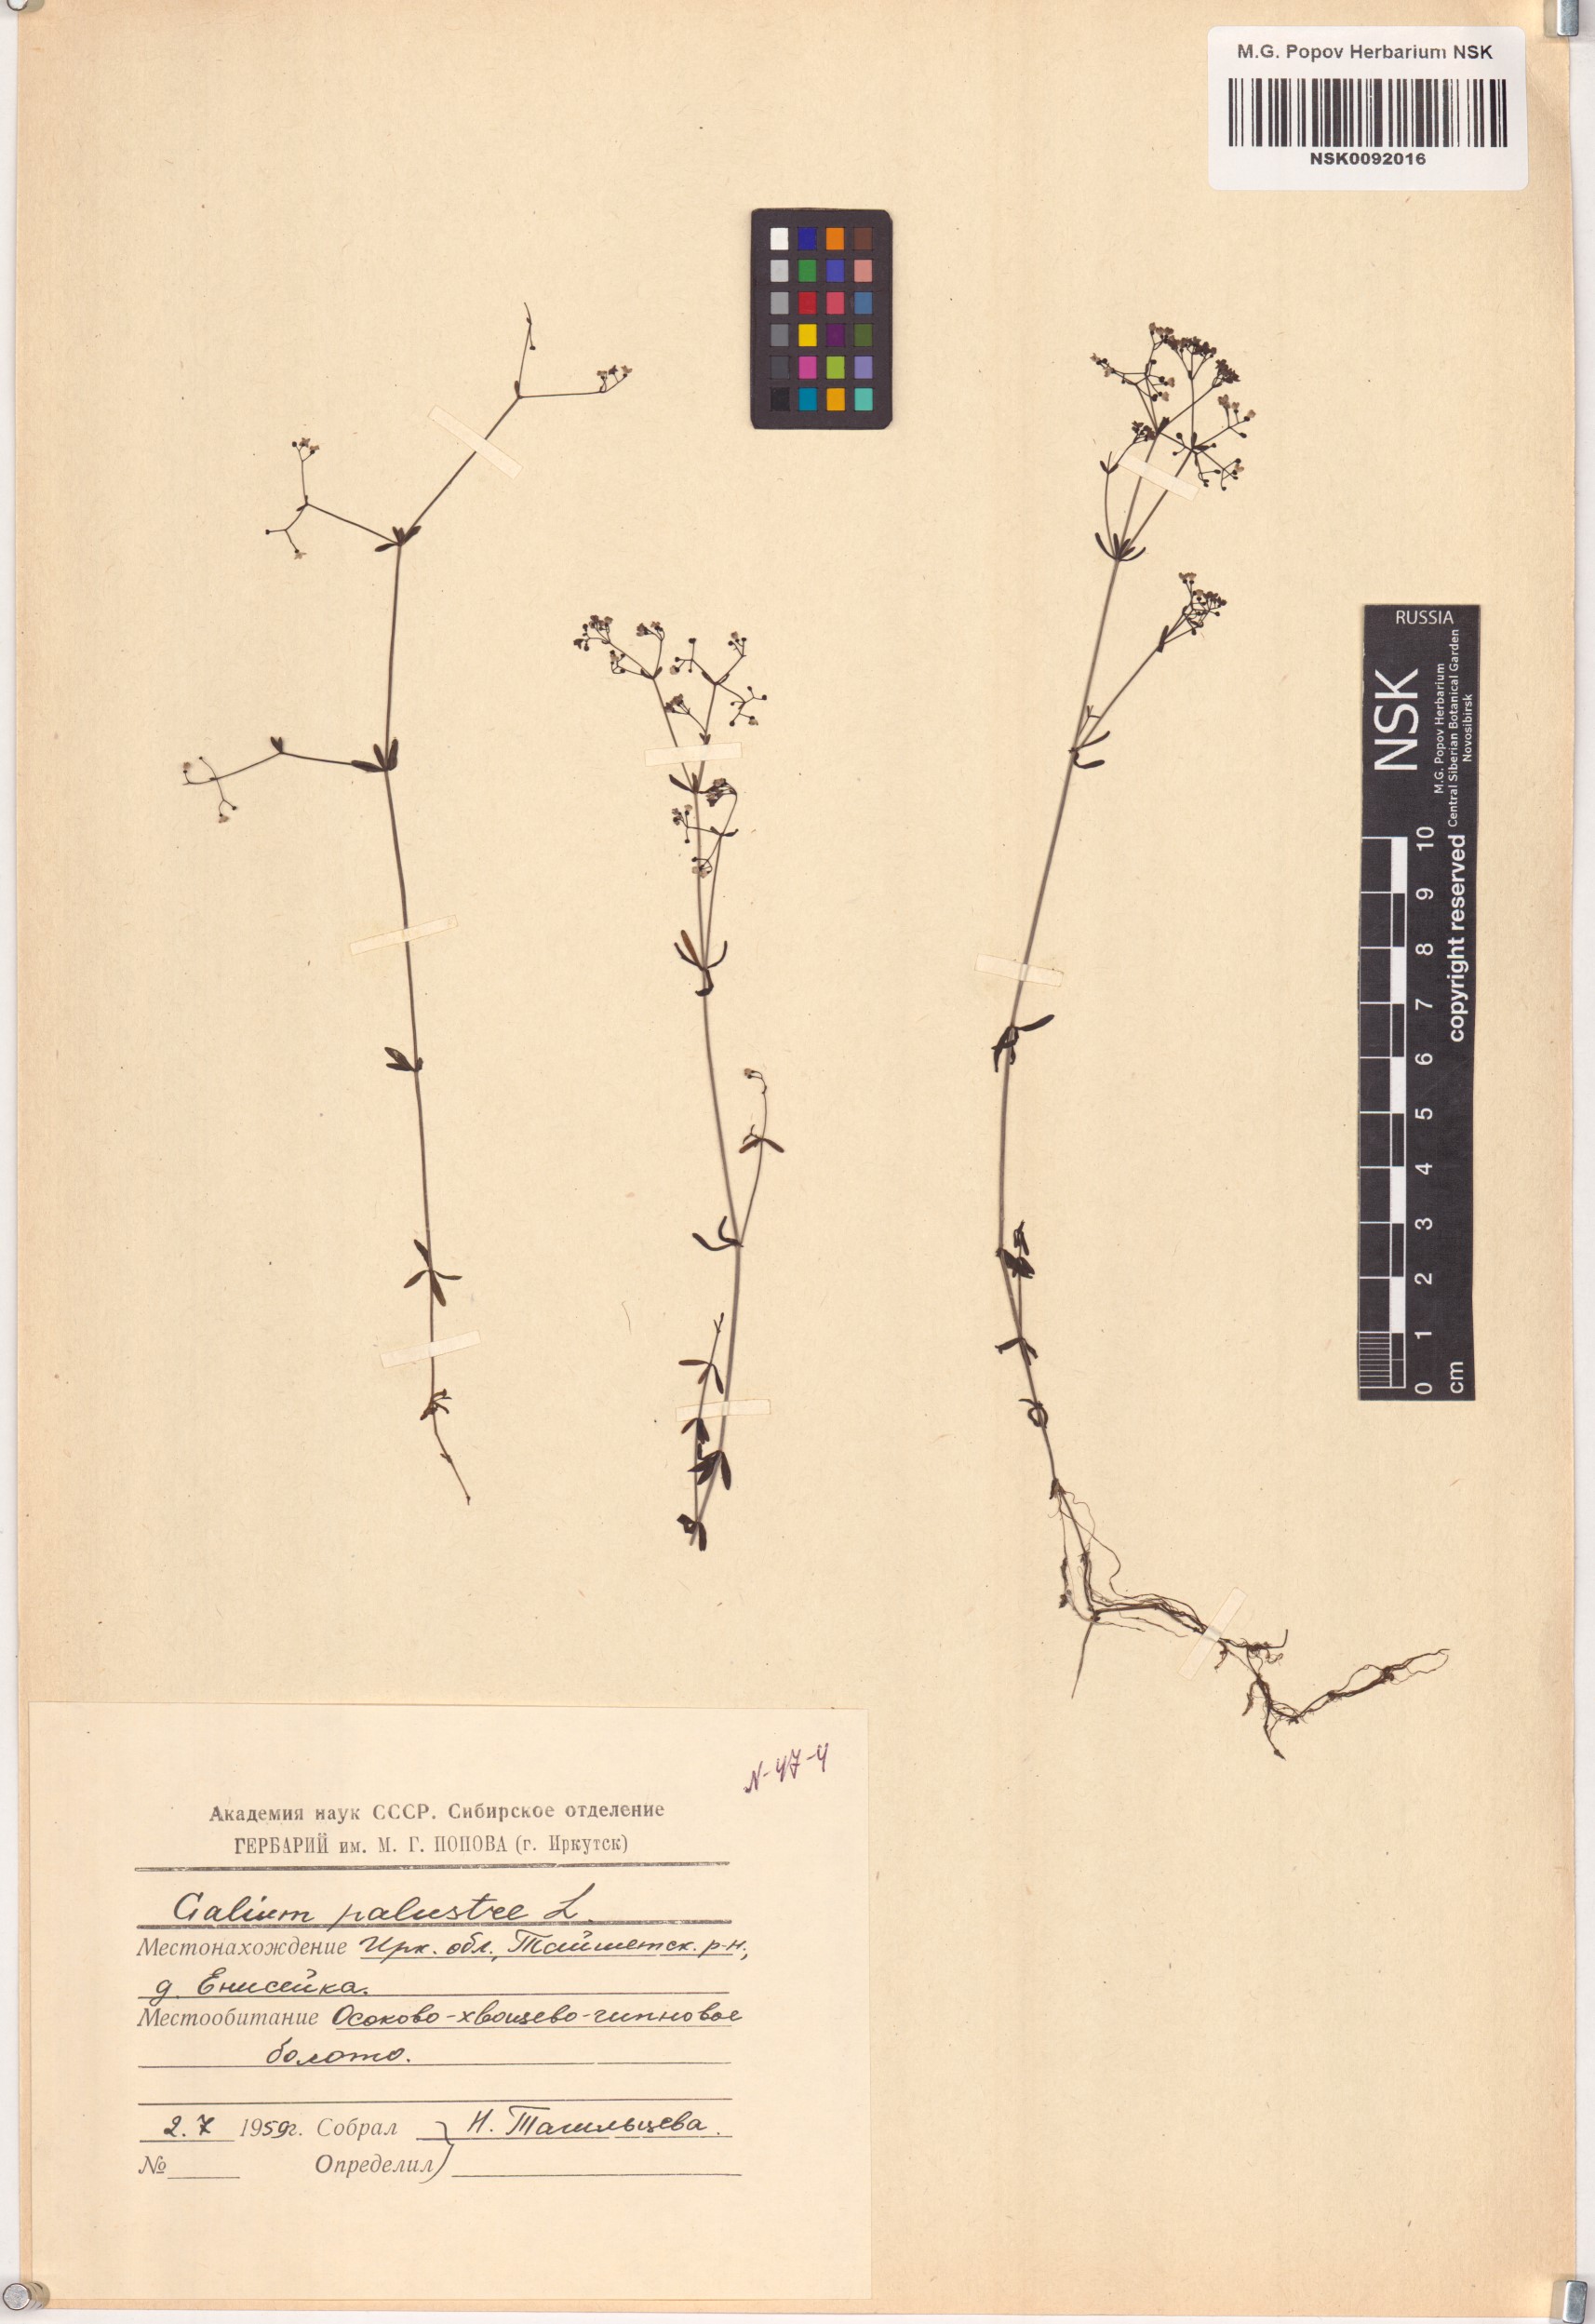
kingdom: Plantae
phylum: Tracheophyta
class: Magnoliopsida
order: Gentianales
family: Rubiaceae
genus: Galium
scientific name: Galium palustre
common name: Common marsh-bedstraw
